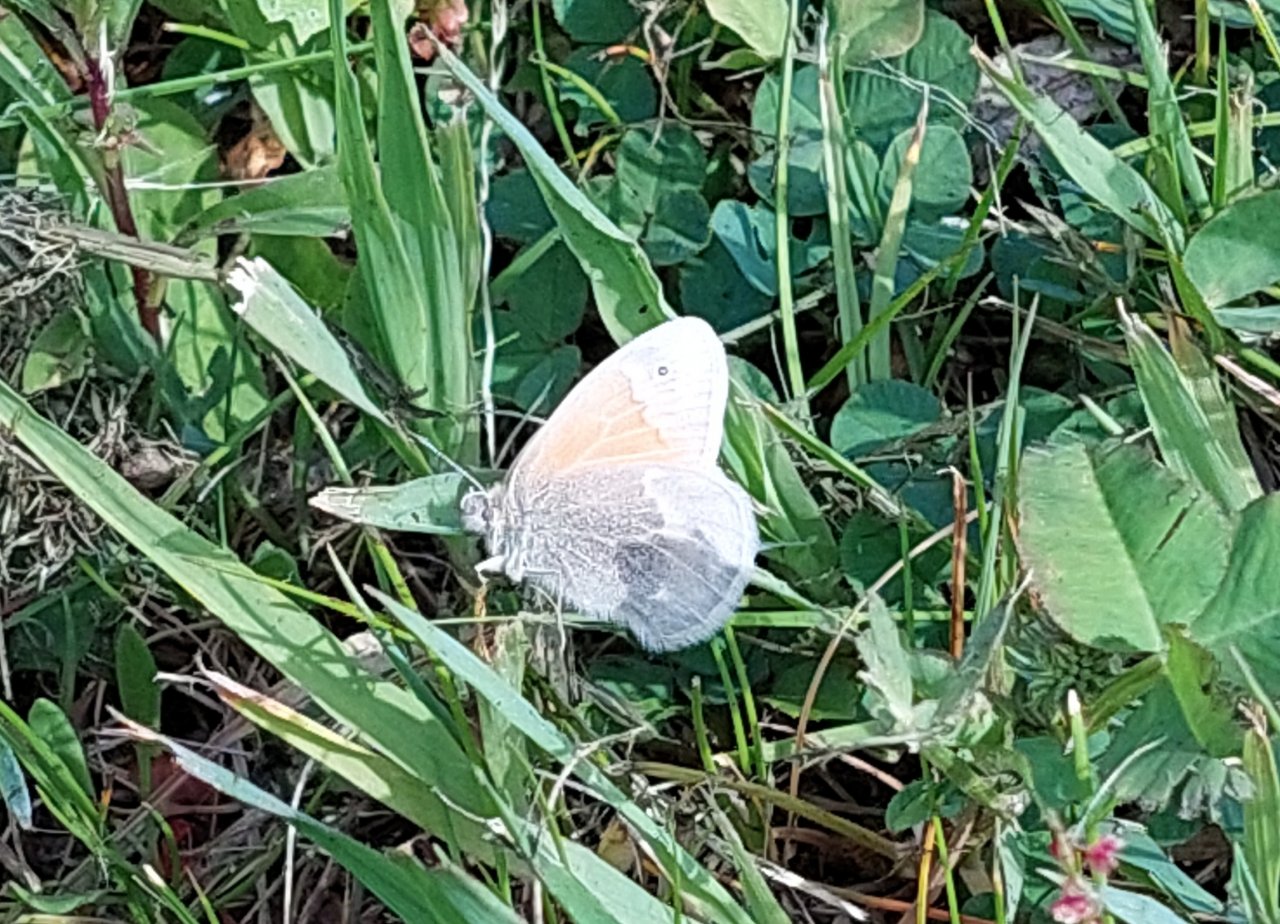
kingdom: Animalia
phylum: Arthropoda
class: Insecta
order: Lepidoptera
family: Nymphalidae
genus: Coenonympha
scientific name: Coenonympha tullia
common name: Large Heath
